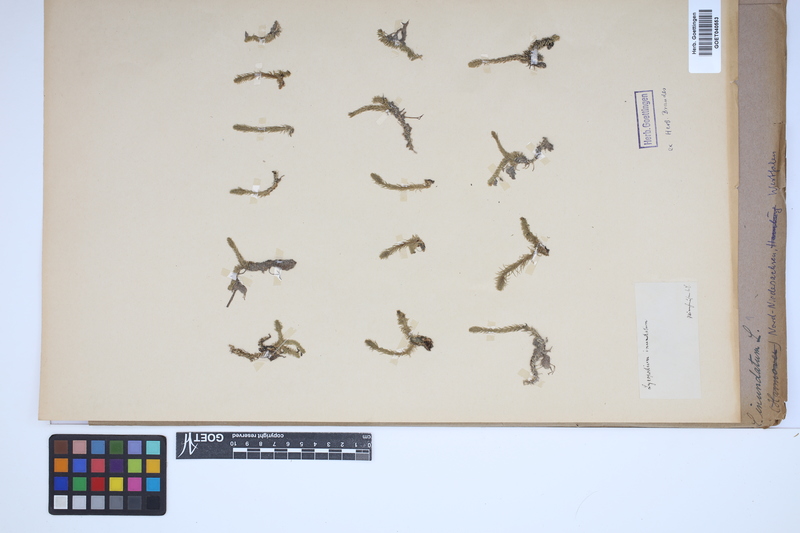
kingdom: Plantae
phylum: Tracheophyta
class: Lycopodiopsida
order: Lycopodiales
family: Lycopodiaceae
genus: Lycopodiella
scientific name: Lycopodiella inundata
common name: Marsh clubmoss
